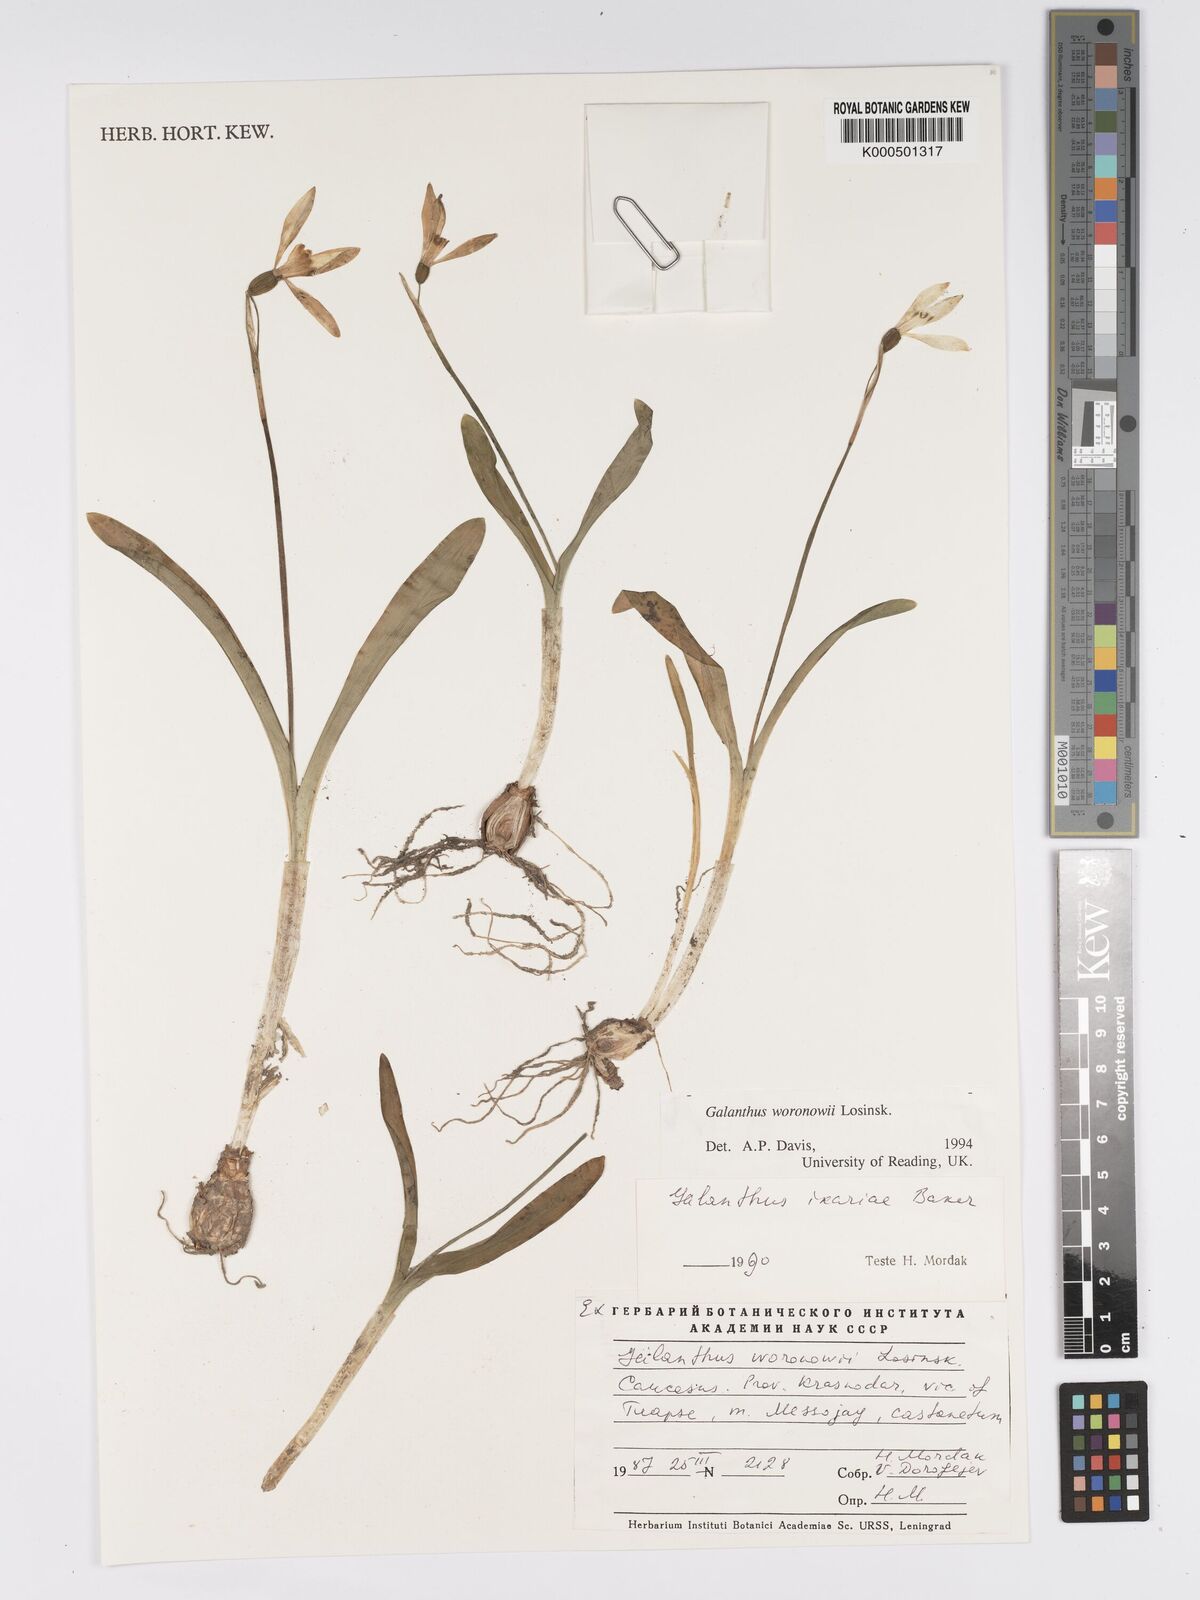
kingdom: Plantae
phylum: Tracheophyta
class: Liliopsida
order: Asparagales
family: Amaryllidaceae
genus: Galanthus
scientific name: Galanthus woronowii
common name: Green snowdrop
